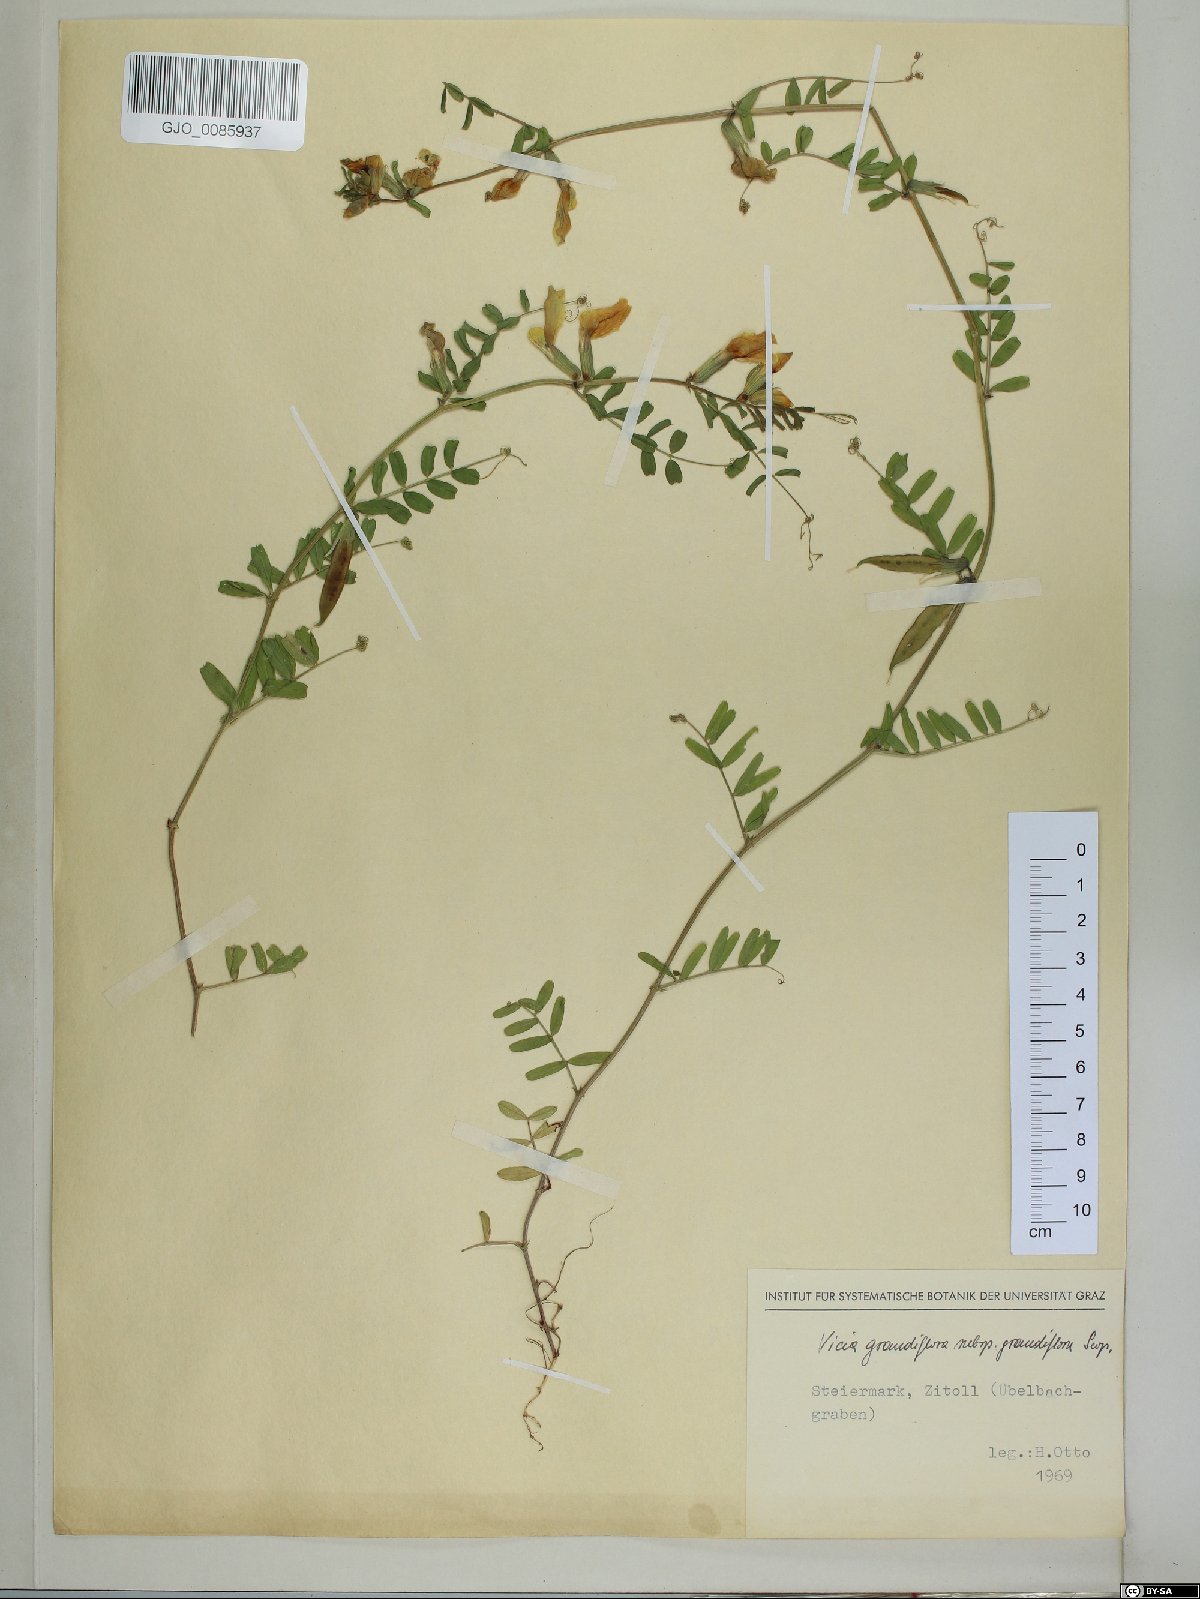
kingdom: Plantae
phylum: Tracheophyta
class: Magnoliopsida
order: Fabales
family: Fabaceae
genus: Vicia
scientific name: Vicia grandiflora
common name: Large yellow vetch
